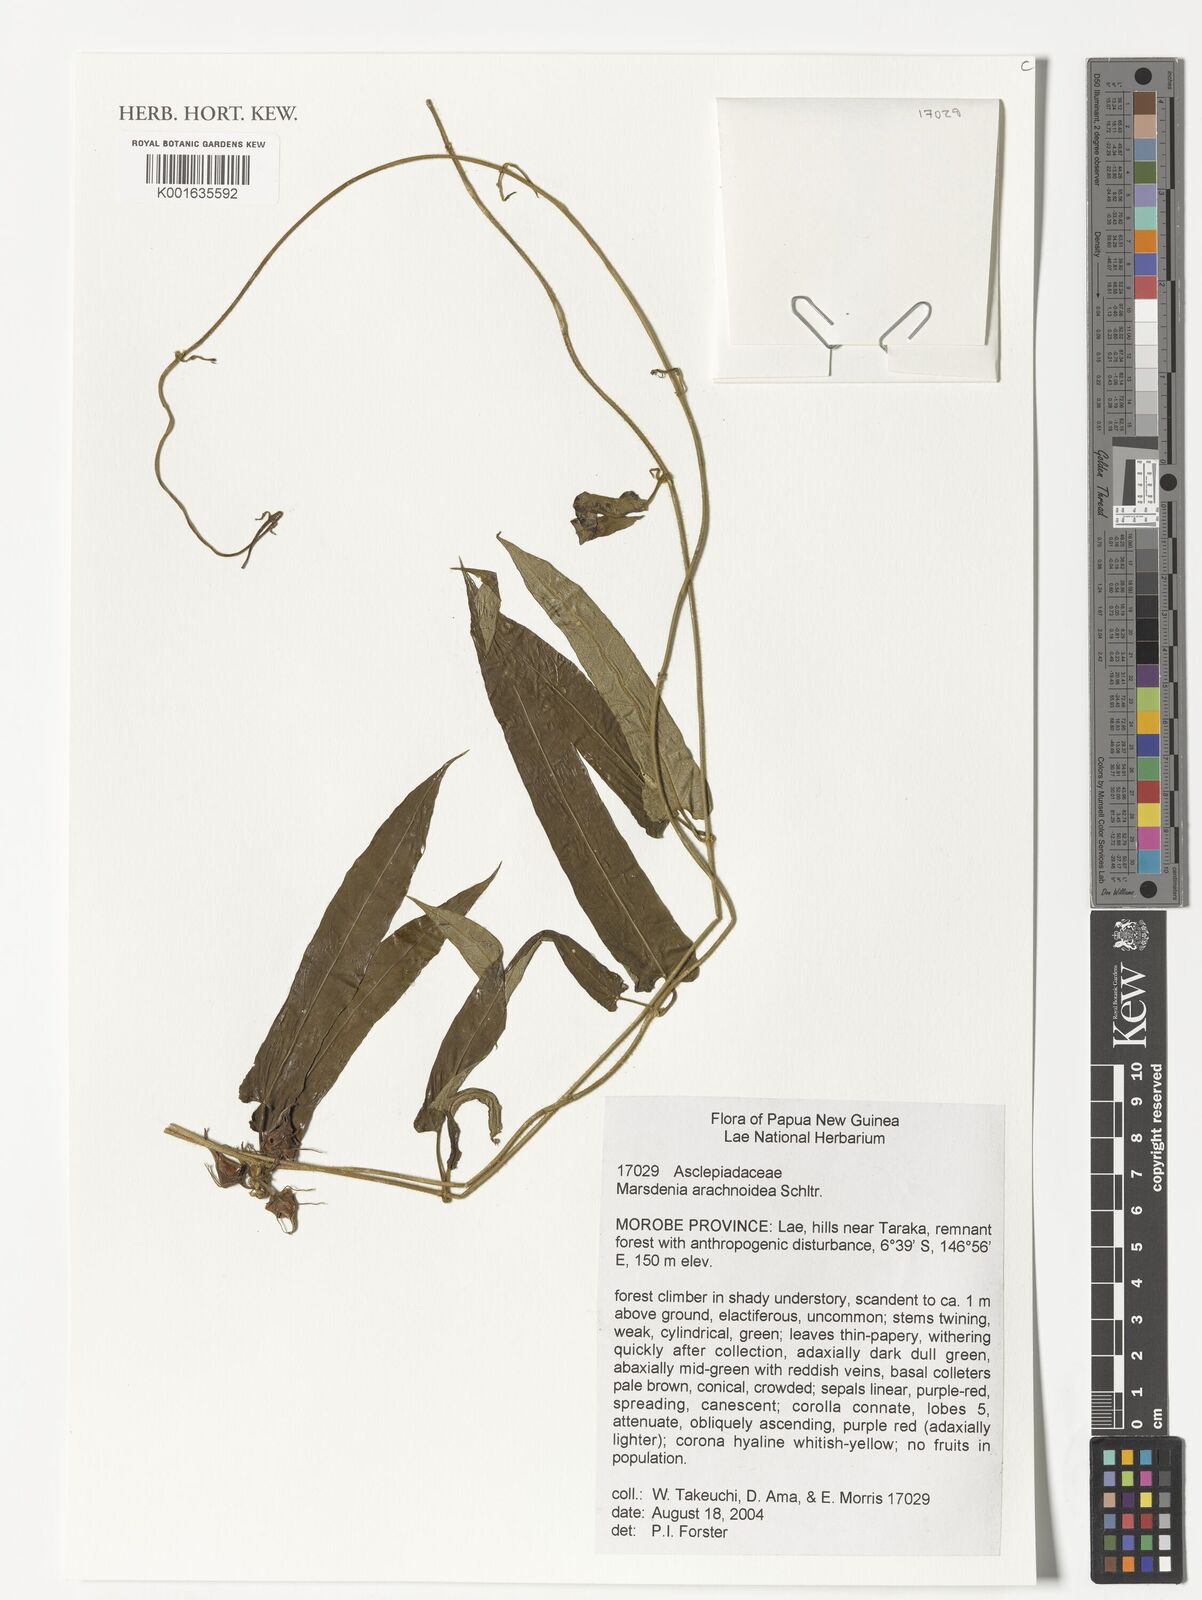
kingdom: Plantae
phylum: Tracheophyta
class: Magnoliopsida
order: Gentianales
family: Apocynaceae
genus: Leichhardtia
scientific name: Leichhardtia arachnoidea
